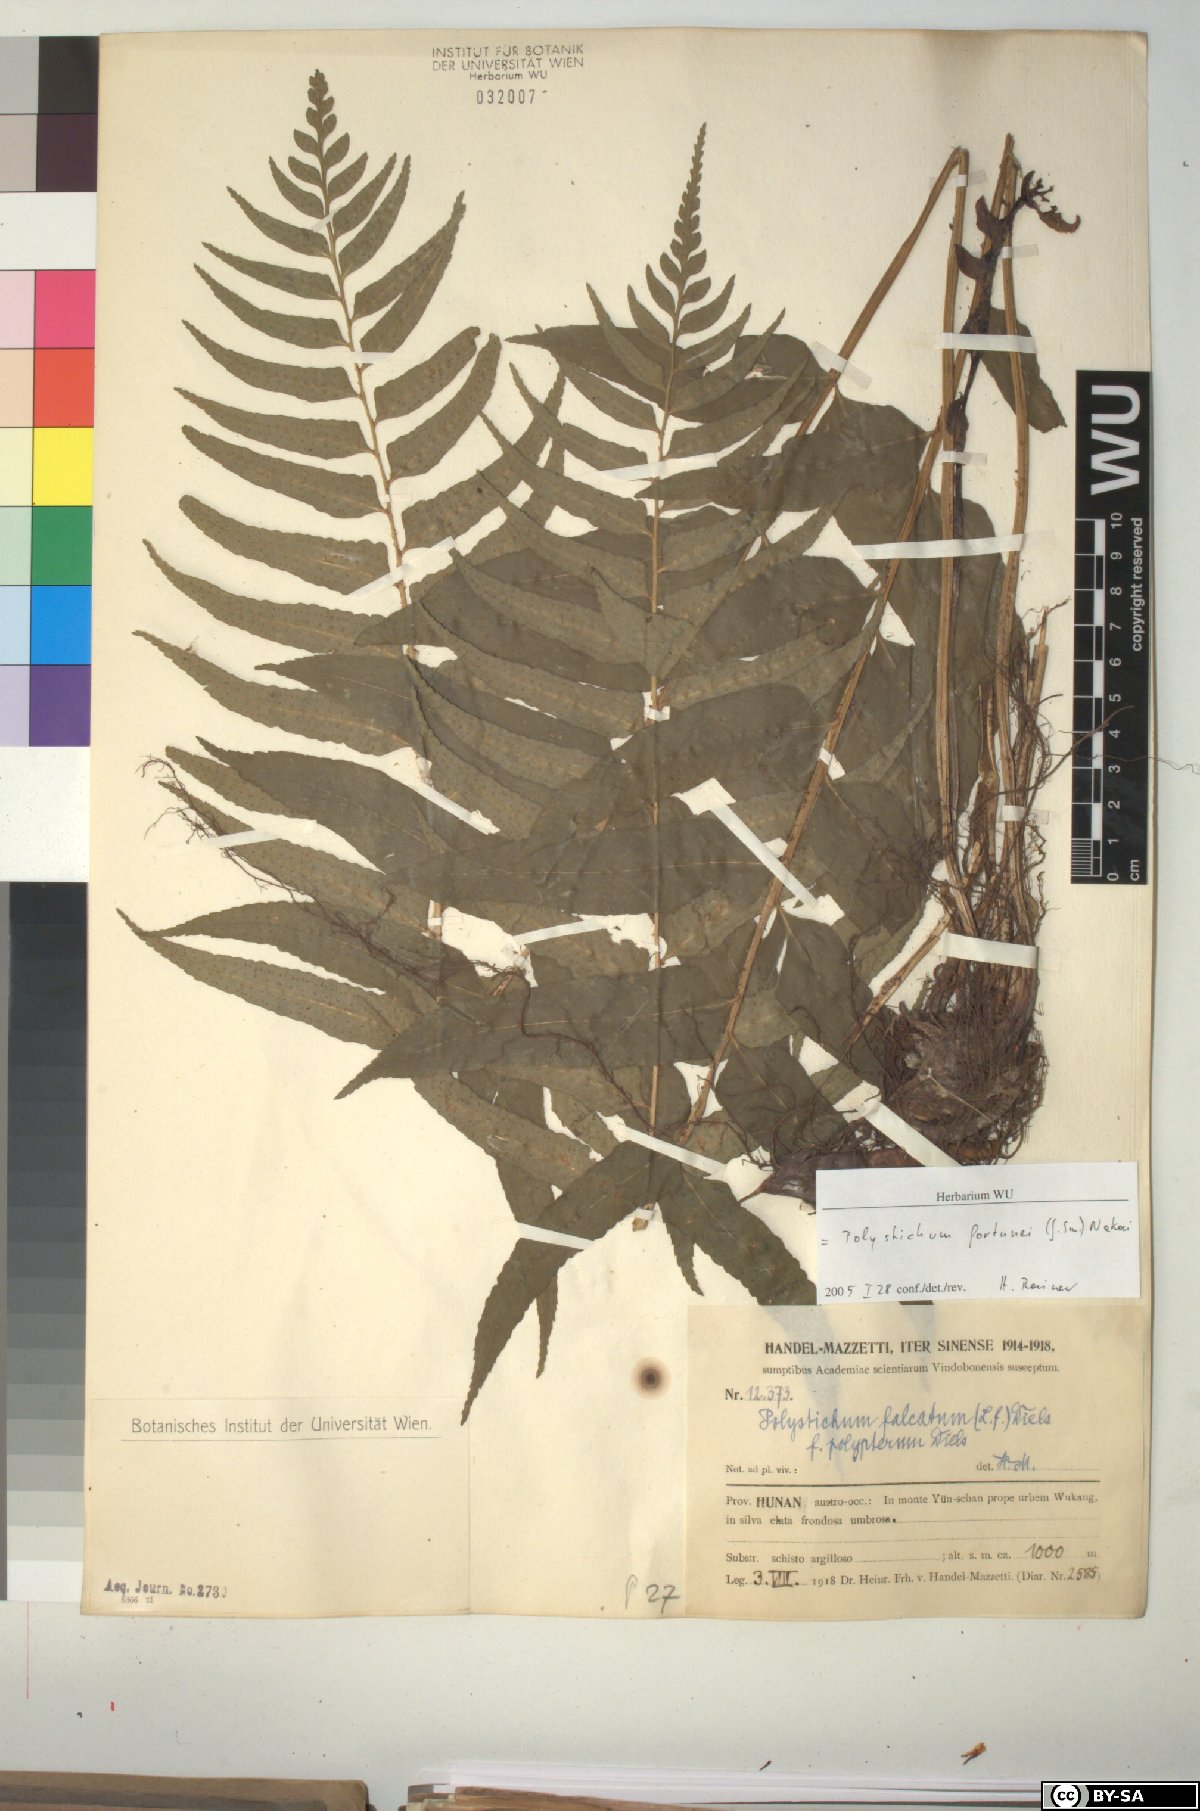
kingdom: Plantae
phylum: Tracheophyta
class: Polypodiopsida
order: Polypodiales
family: Dryopteridaceae
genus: Cyrtomium
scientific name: Cyrtomium fortunei
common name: Asian netvein hollyfern
